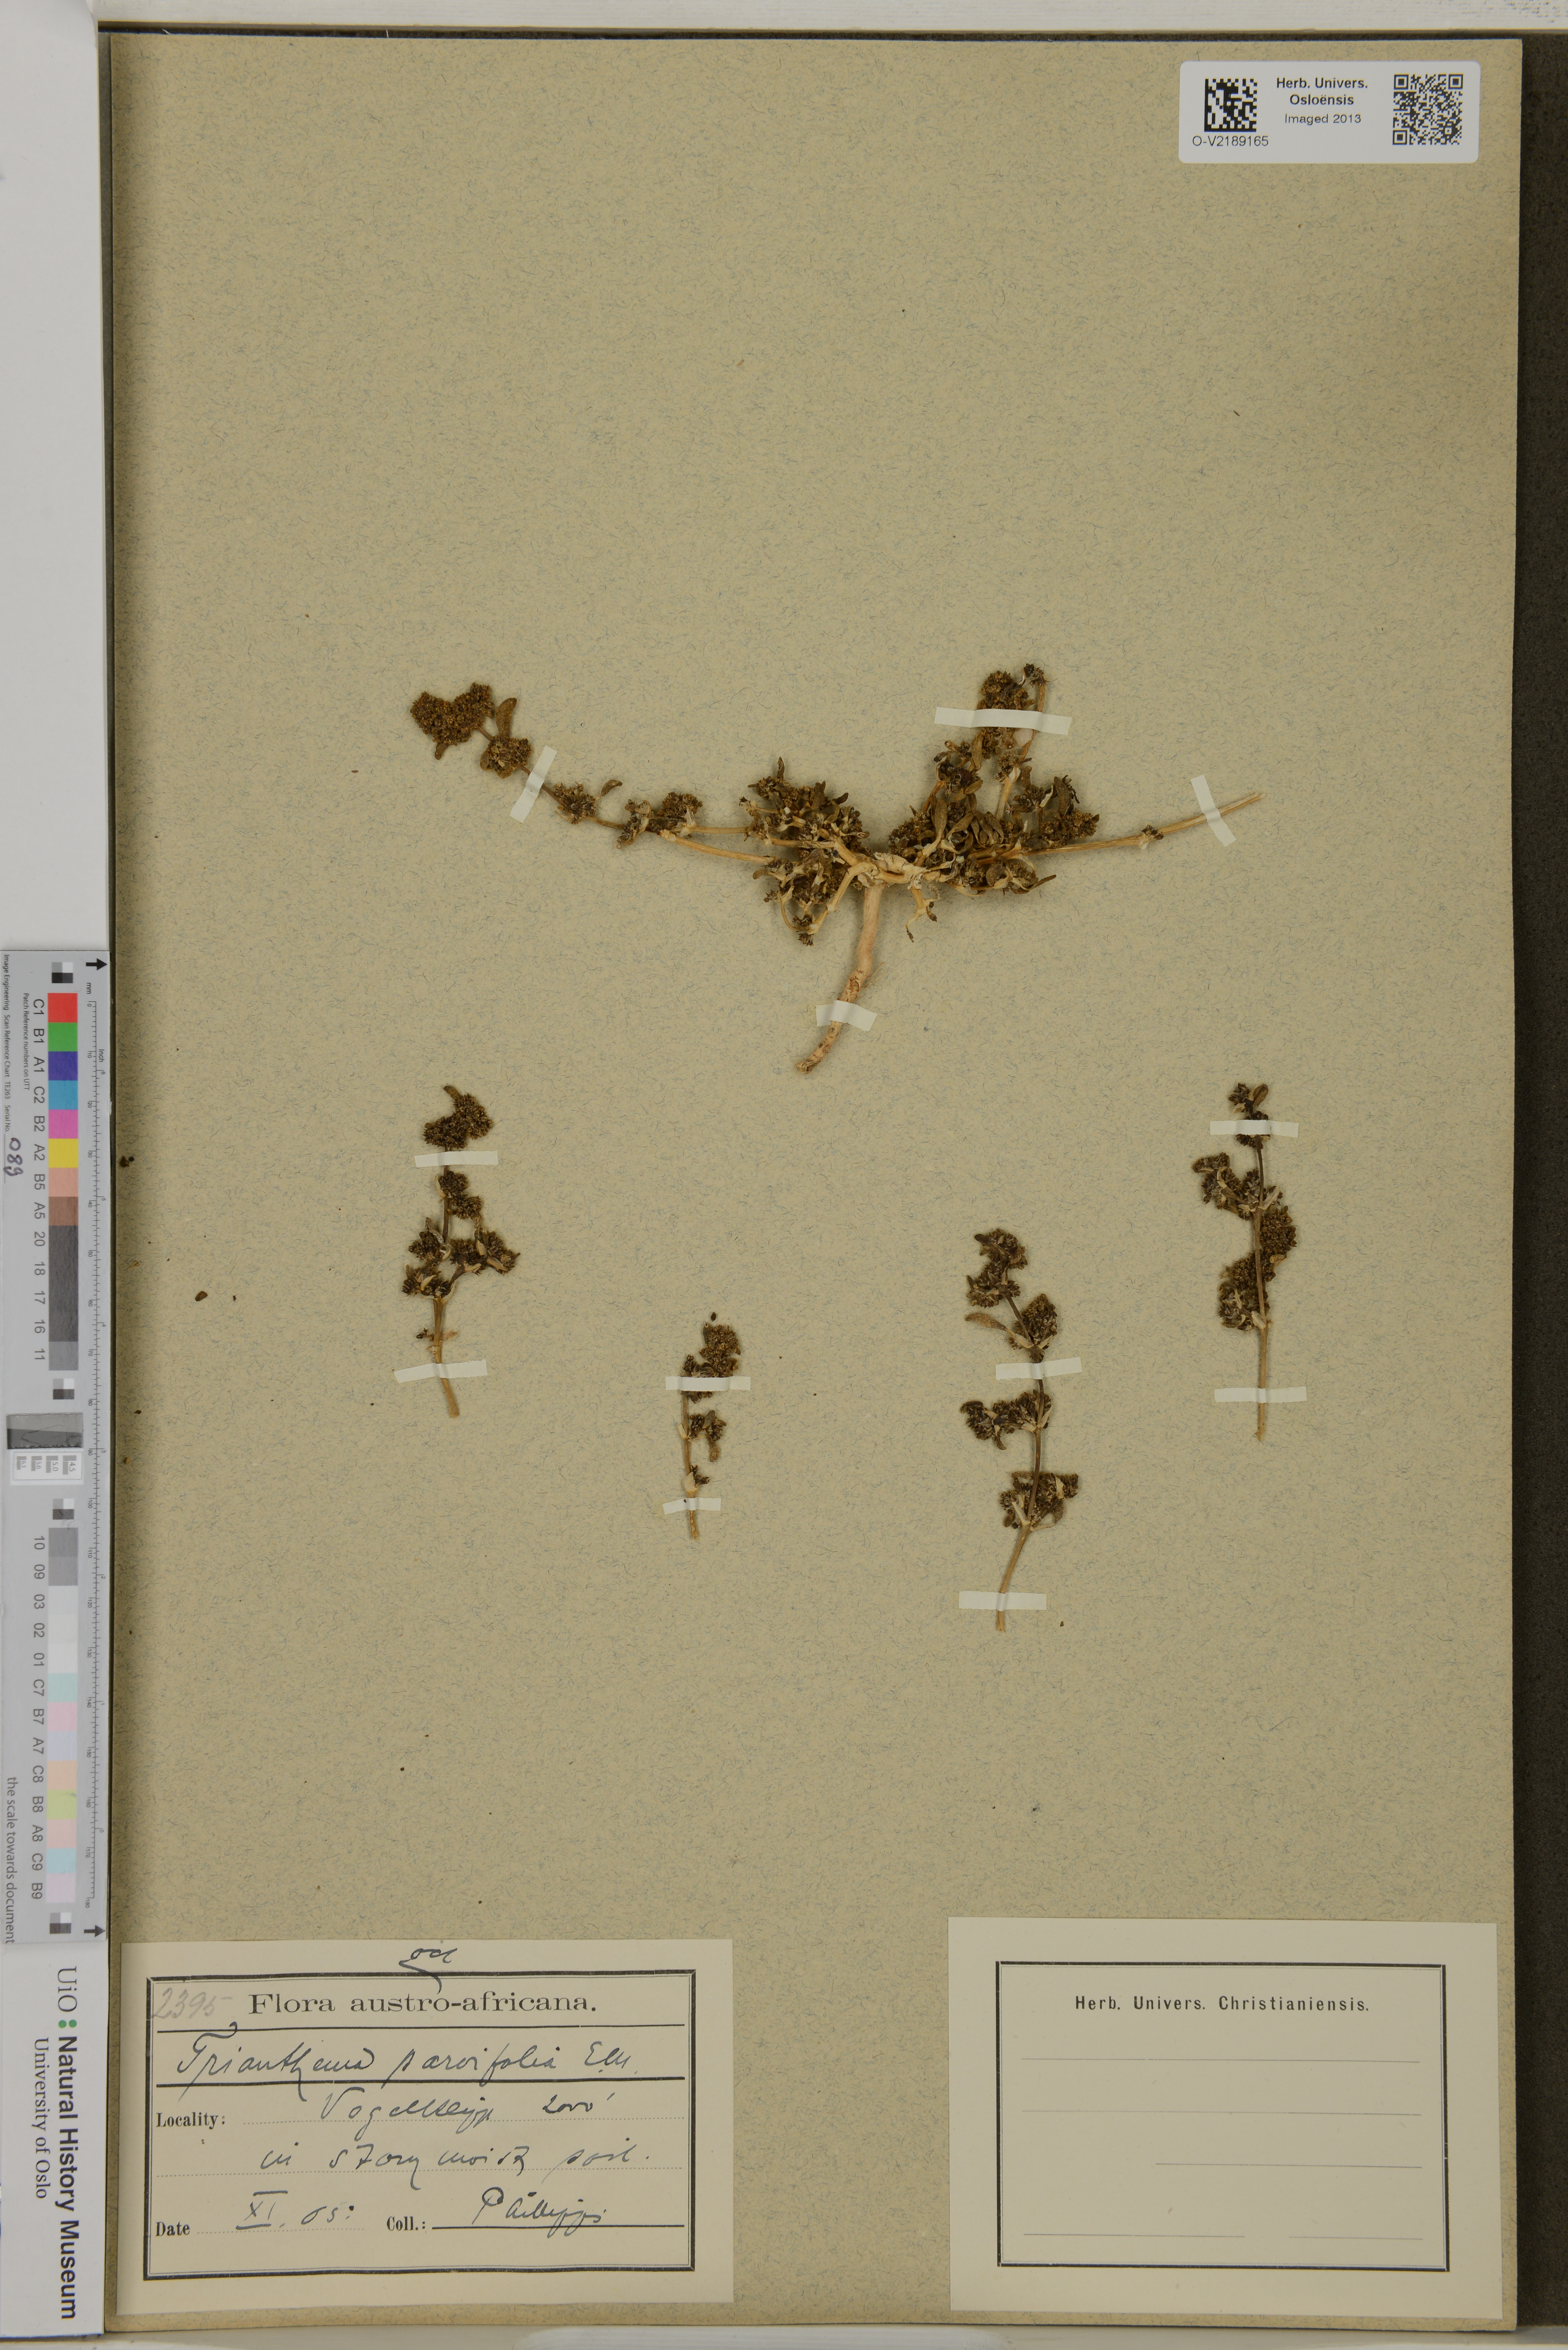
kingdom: Plantae
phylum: Tracheophyta
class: Magnoliopsida
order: Caryophyllales
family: Aizoaceae
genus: Trianthema
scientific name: Trianthema parvifolium
